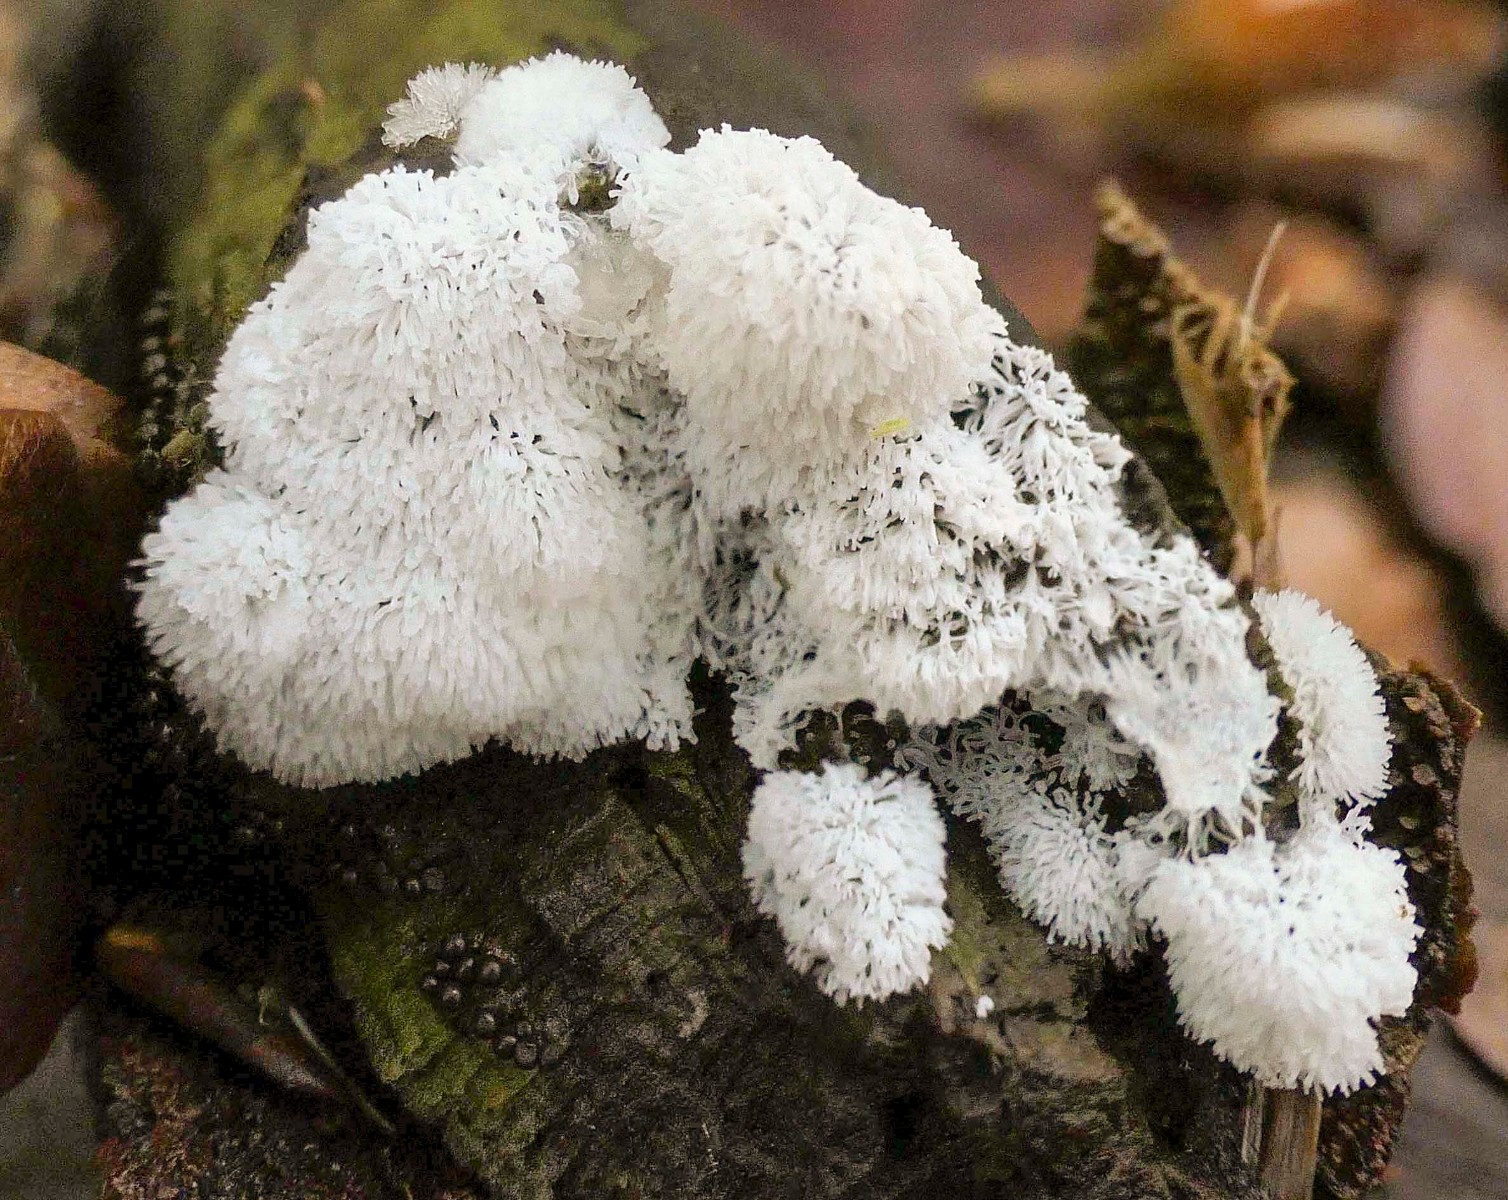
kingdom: Protozoa
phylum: Mycetozoa
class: Protosteliomycetes
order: Ceratiomyxales
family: Ceratiomyxaceae
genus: Ceratiomyxa
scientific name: Ceratiomyxa fruticulosa
